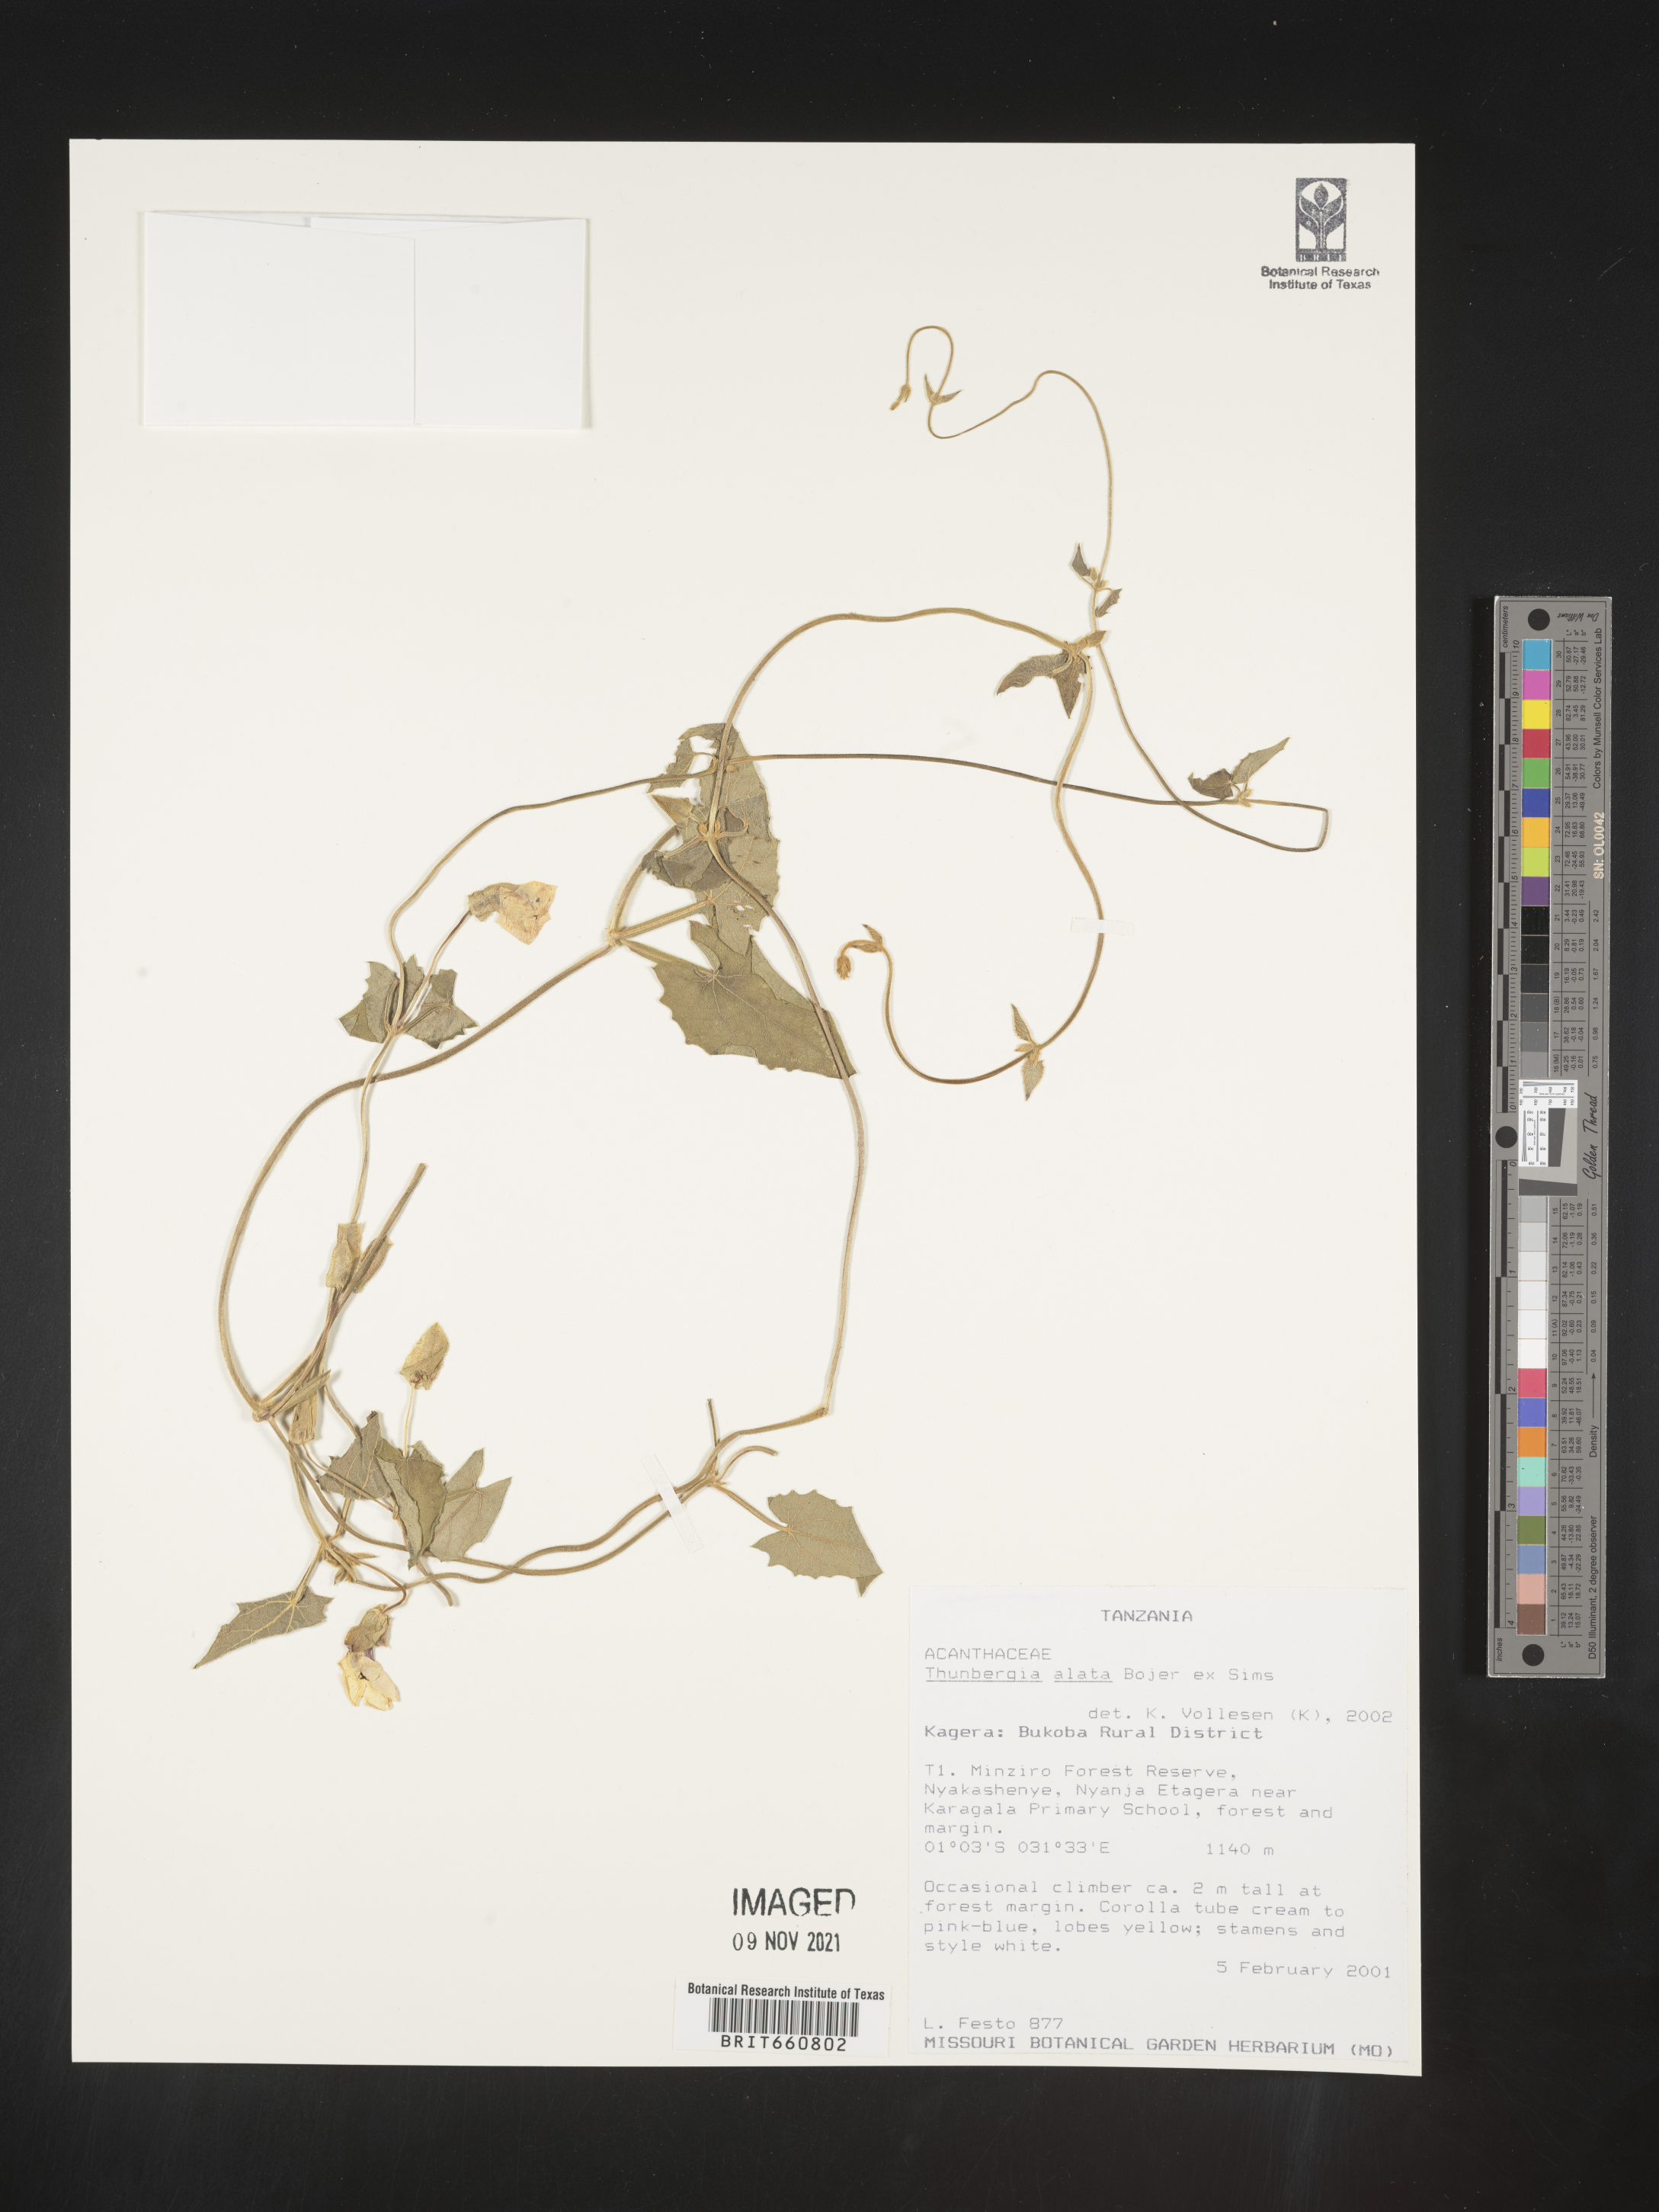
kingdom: Plantae
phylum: Tracheophyta
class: Magnoliopsida
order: Lamiales
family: Acanthaceae
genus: Thunbergia
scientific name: Thunbergia
